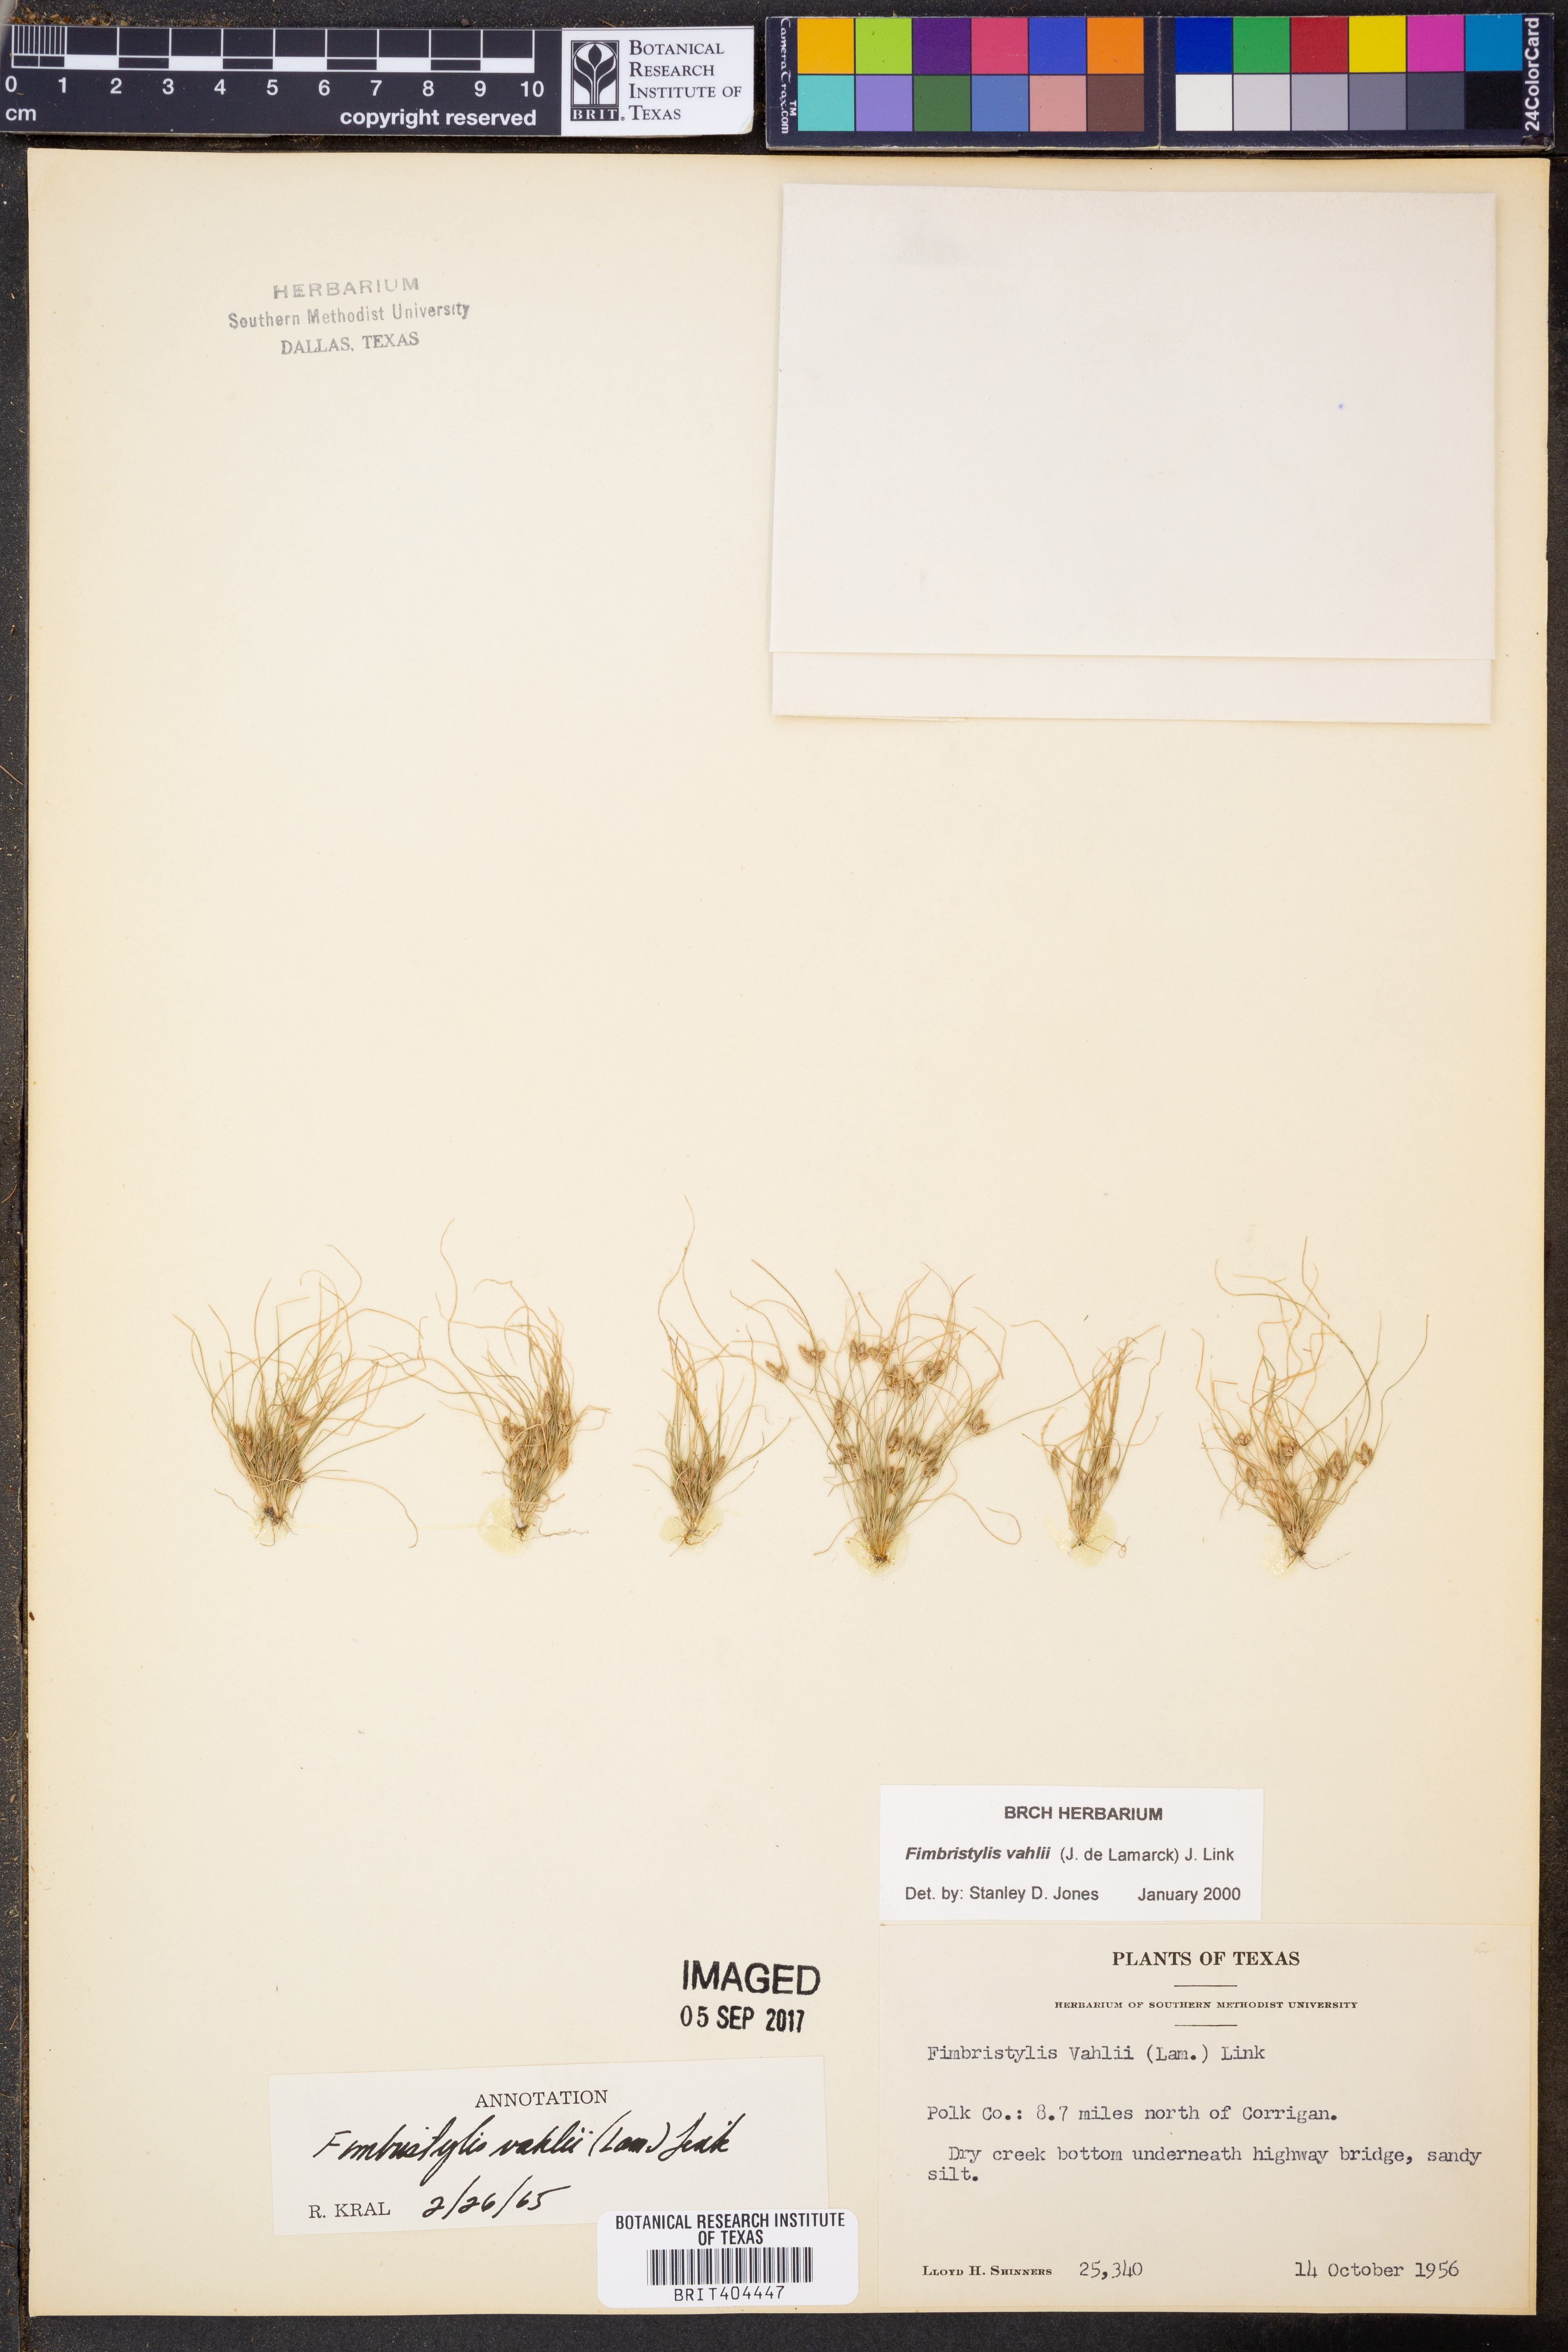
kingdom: Plantae
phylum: Tracheophyta
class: Liliopsida
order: Poales
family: Cyperaceae
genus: Fimbristylis
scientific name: Fimbristylis vahlii
